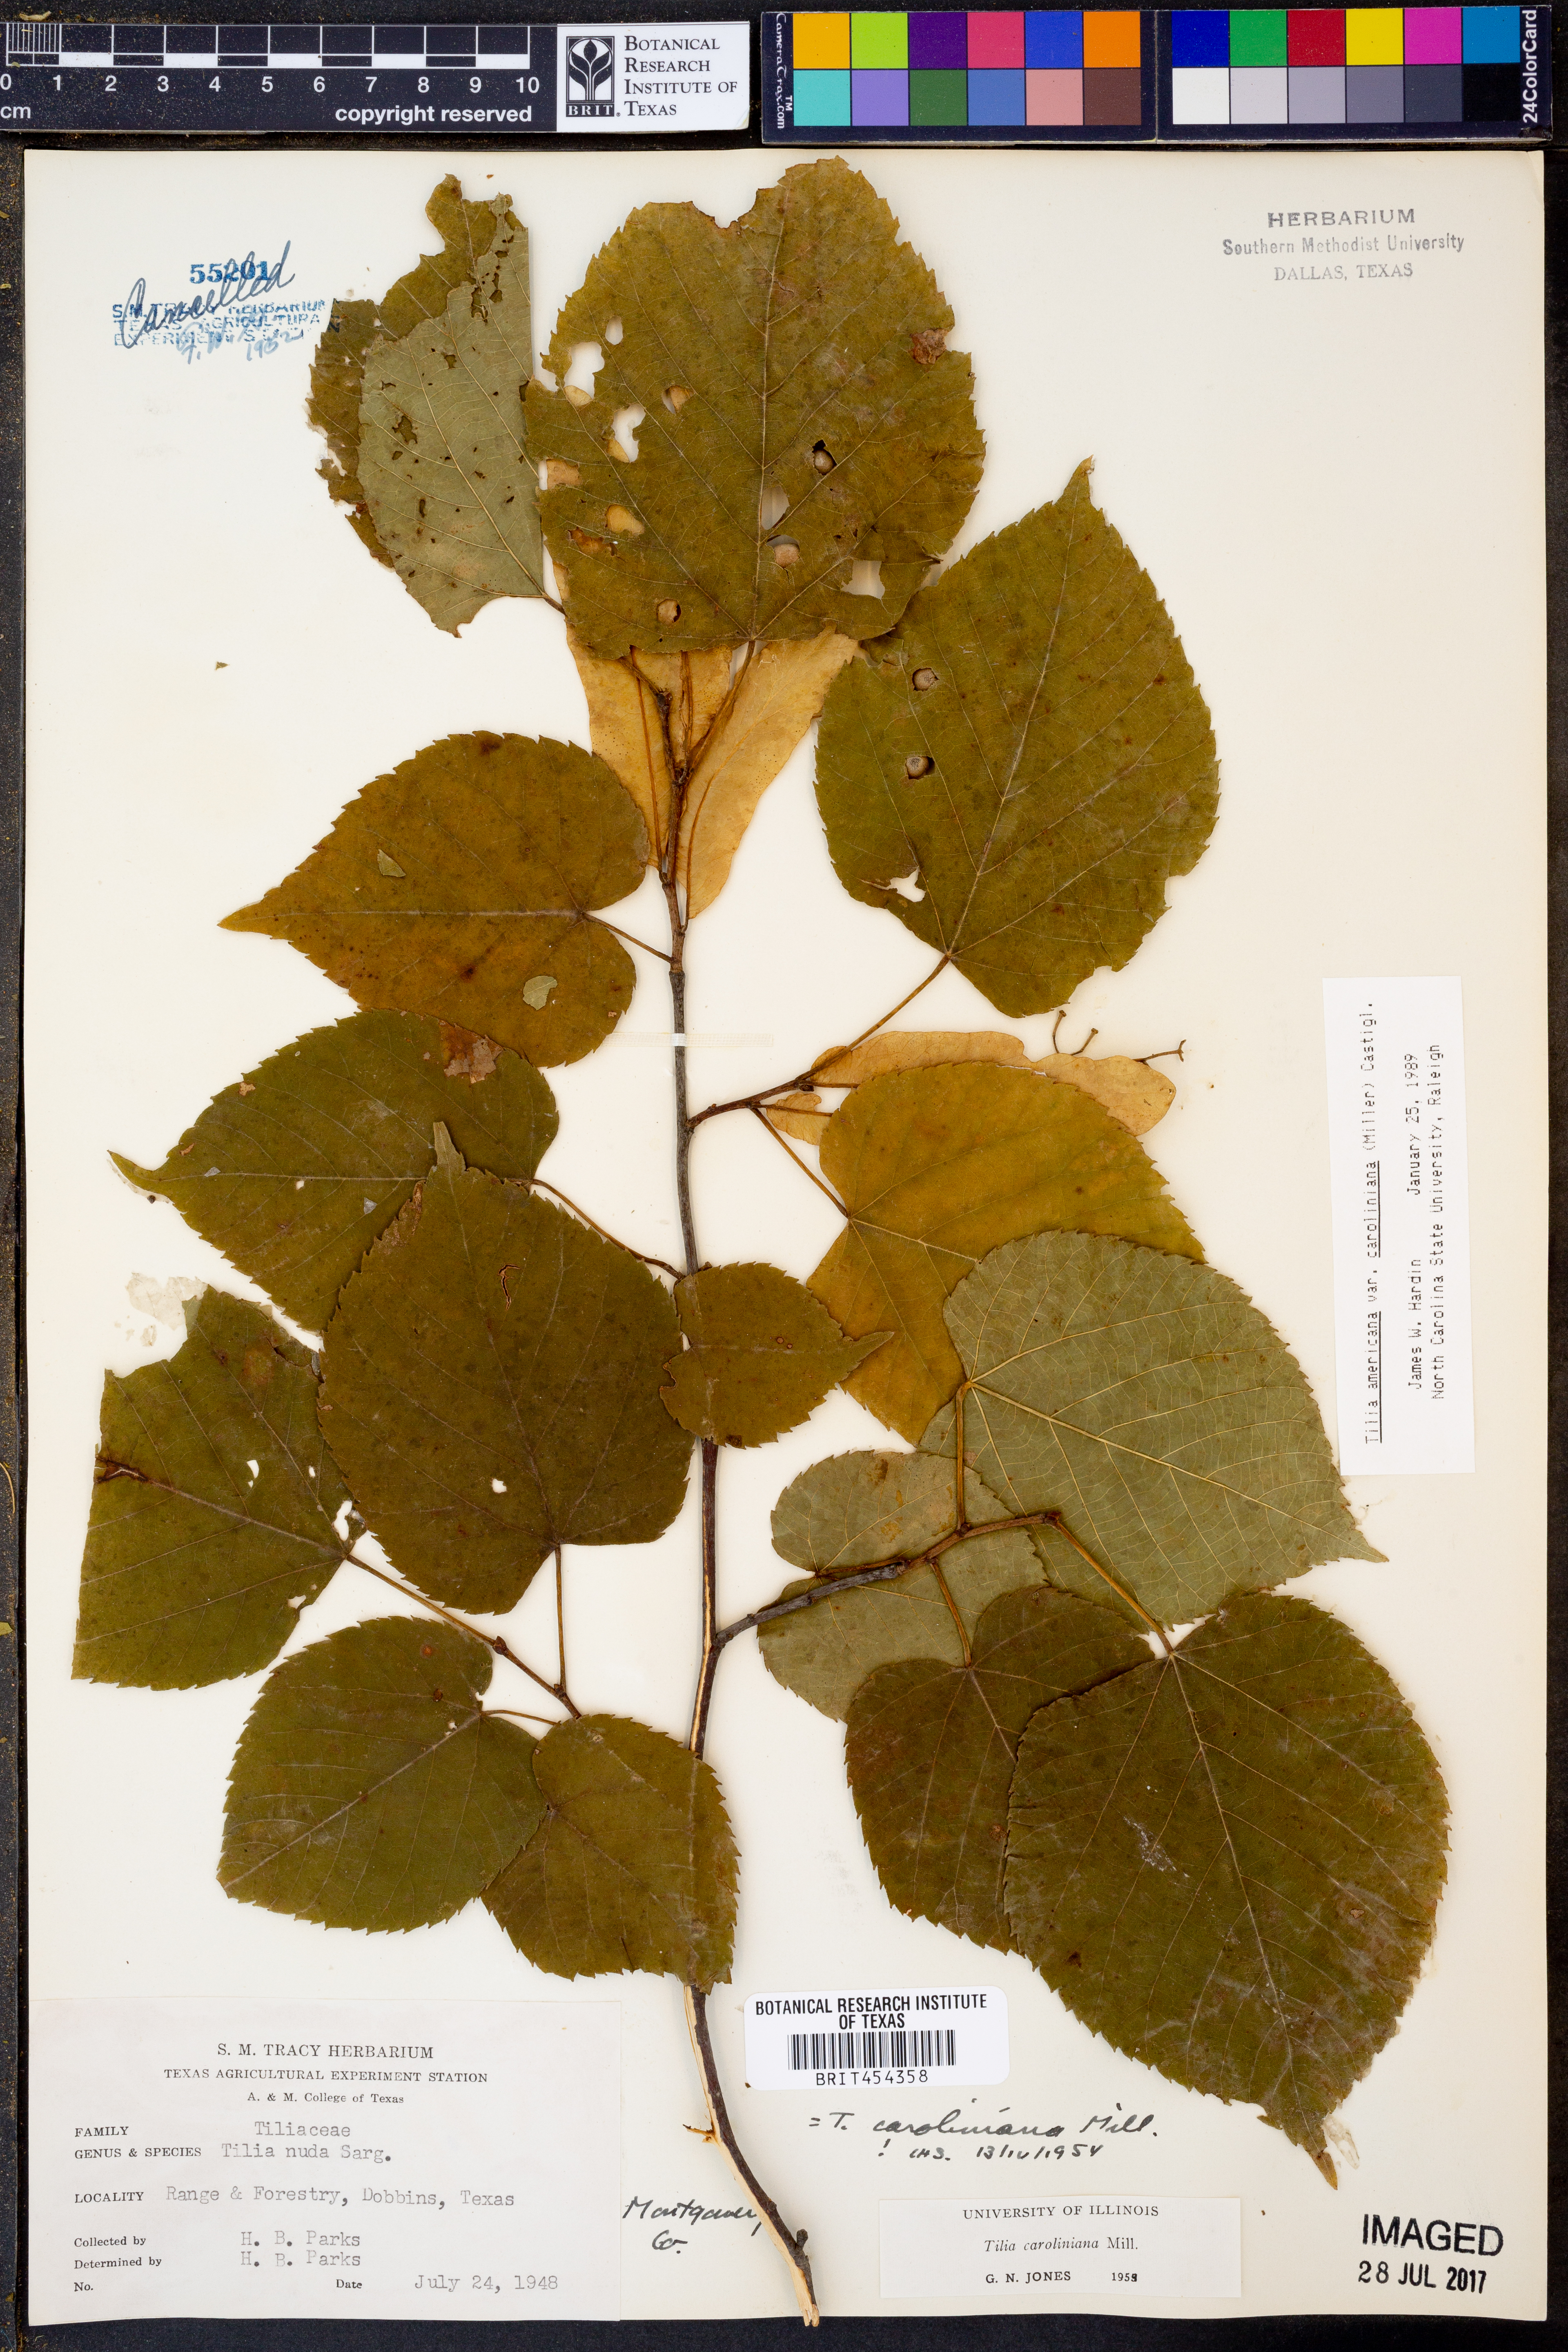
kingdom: Plantae
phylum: Tracheophyta
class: Magnoliopsida
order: Malvales
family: Malvaceae
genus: Tilia
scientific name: Tilia americana
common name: Basswood
